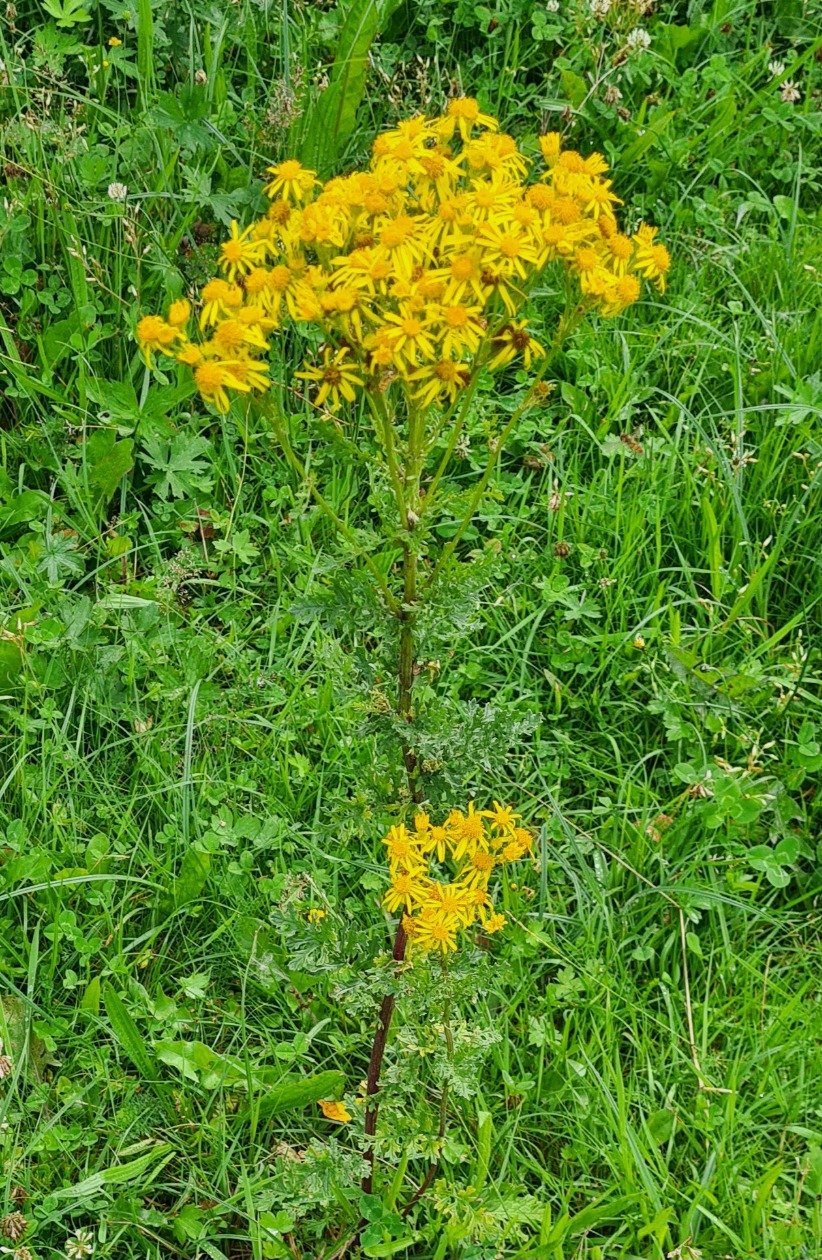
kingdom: Plantae
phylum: Tracheophyta
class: Magnoliopsida
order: Asterales
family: Asteraceae
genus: Jacobaea
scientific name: Jacobaea vulgaris
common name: Eng-brandbæger
